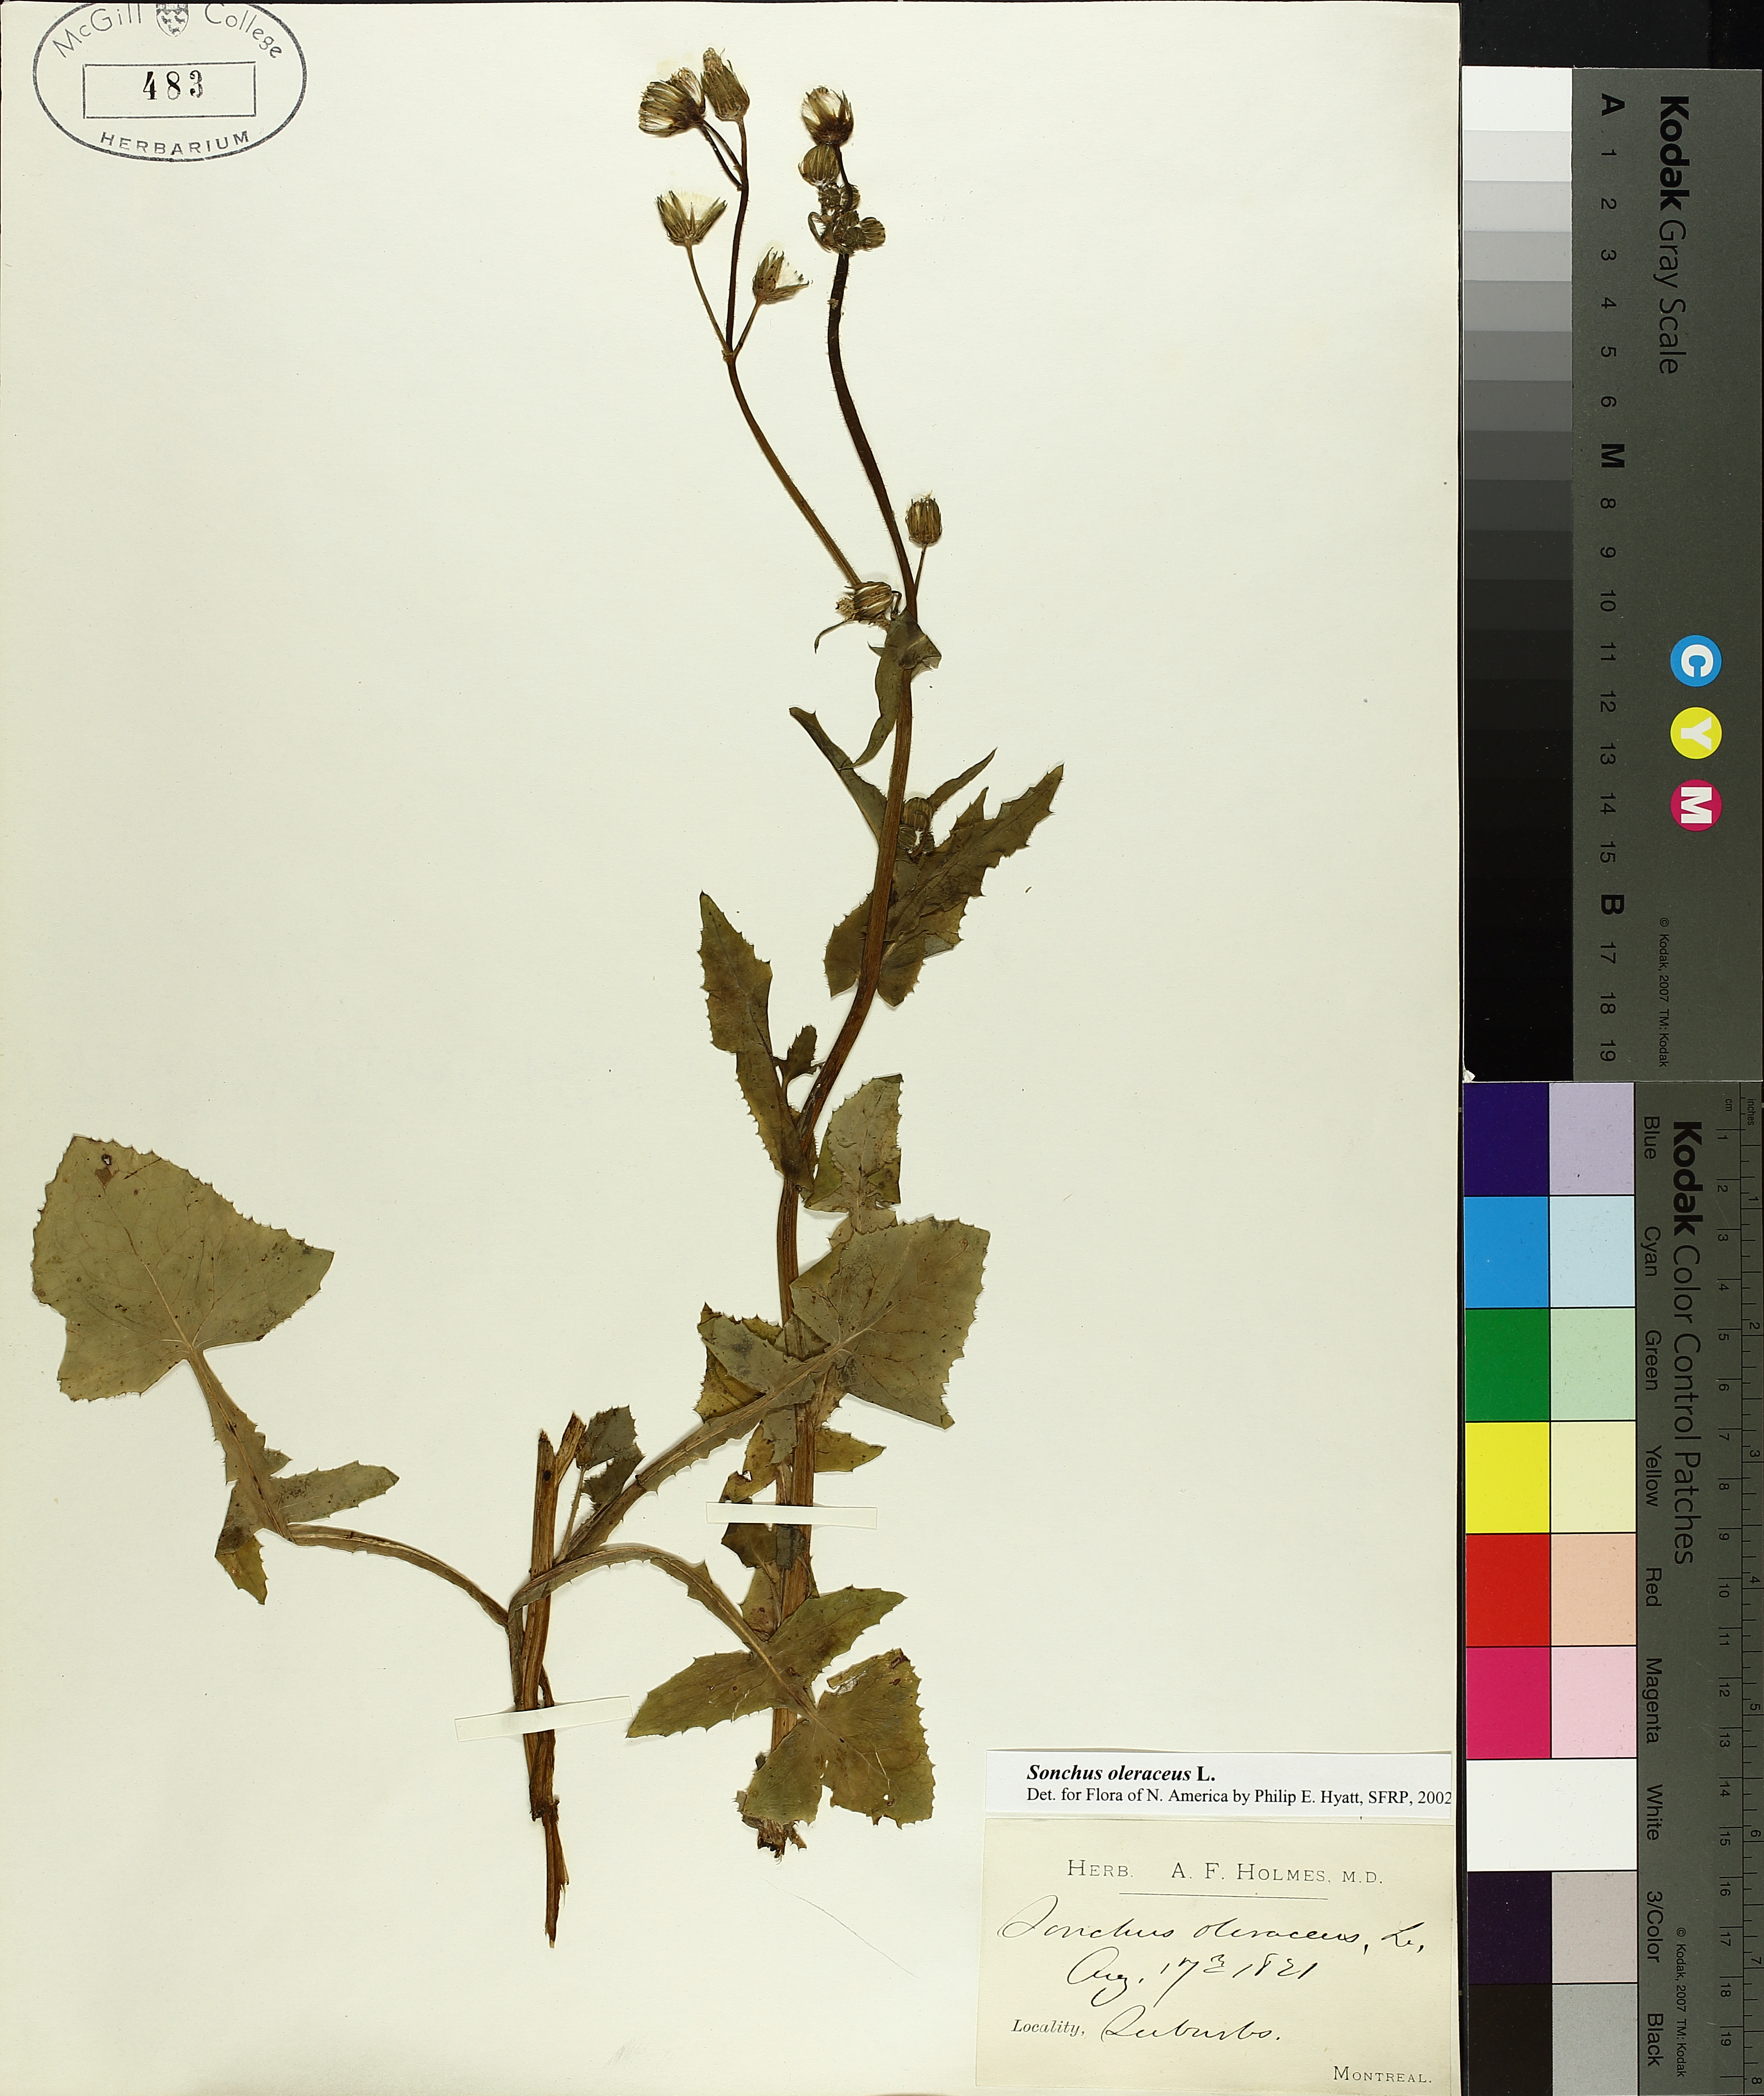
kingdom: Plantae
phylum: Tracheophyta
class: Magnoliopsida
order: Asterales
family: Asteraceae
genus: Sonchus
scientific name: Sonchus oleraceus
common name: Common sowthistle
